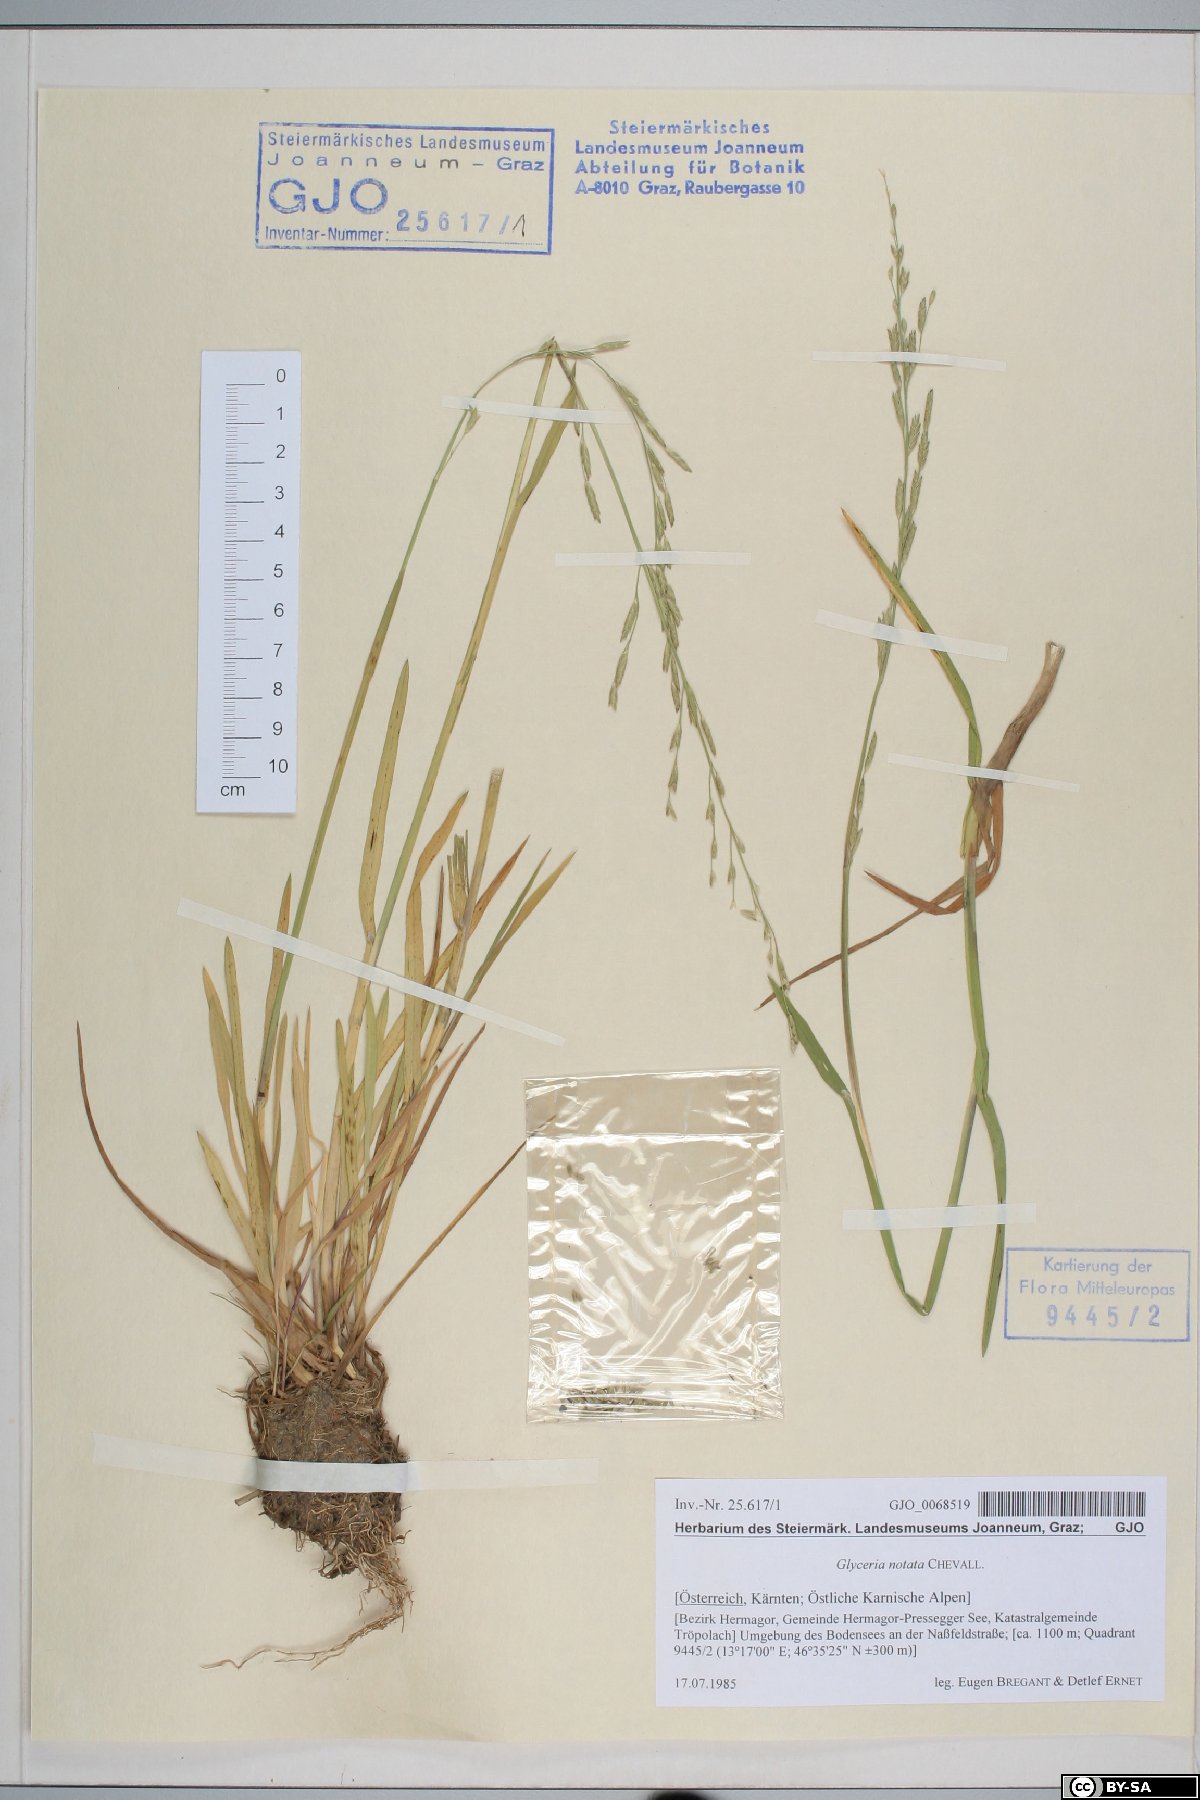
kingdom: Plantae
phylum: Tracheophyta
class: Liliopsida
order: Poales
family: Poaceae
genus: Glyceria
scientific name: Glyceria notata
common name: Plicate sweet-grass
